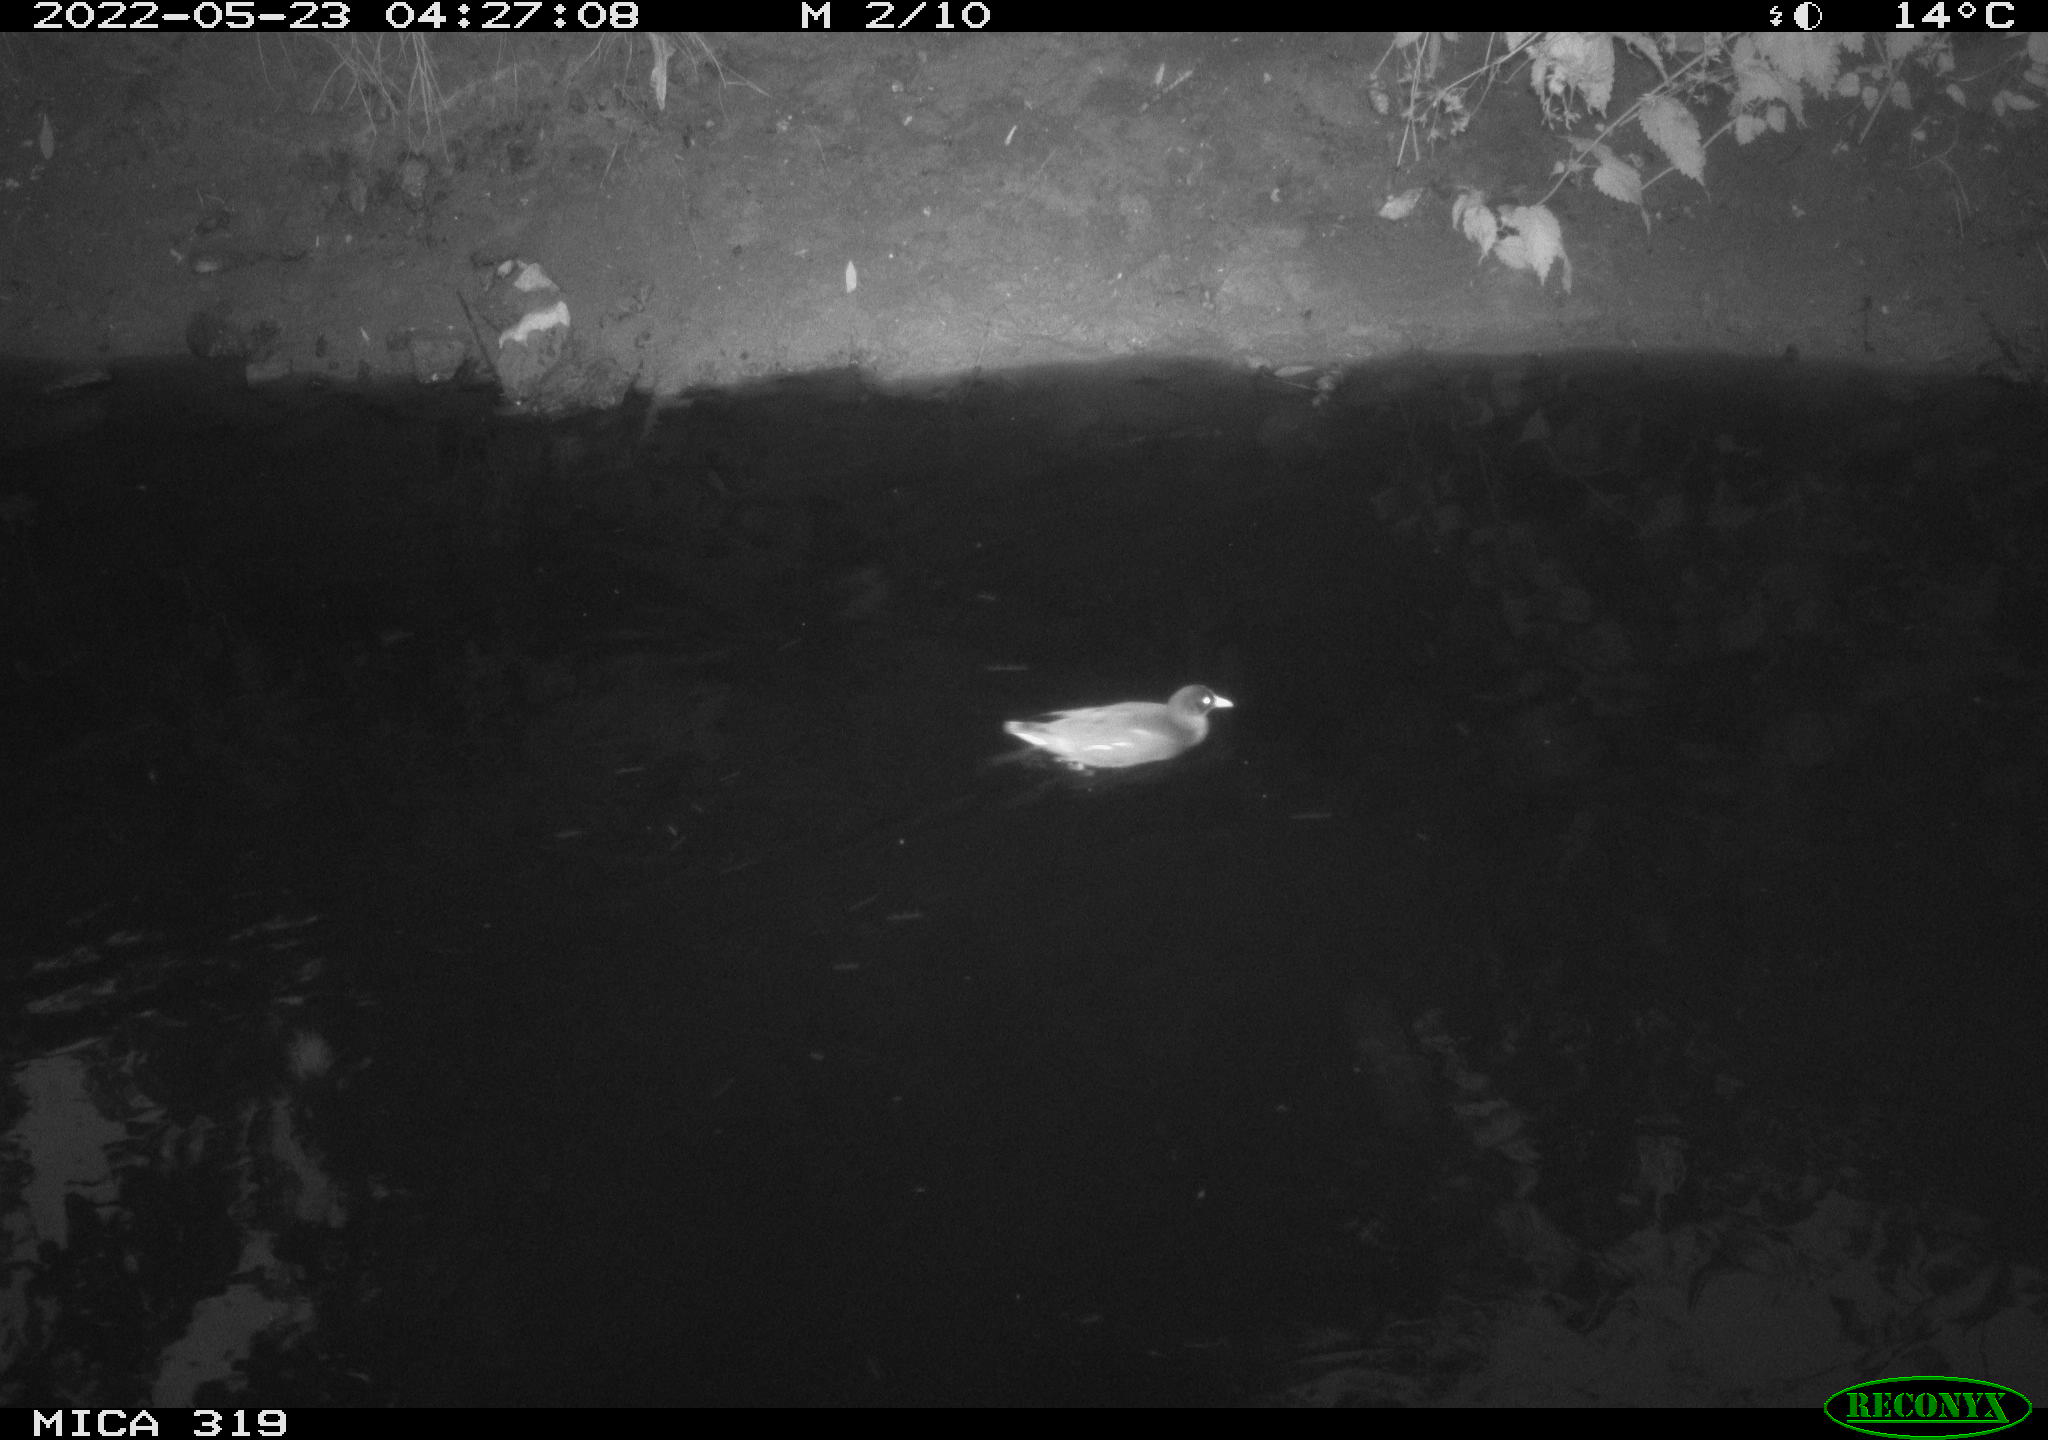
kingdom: Animalia
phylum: Chordata
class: Aves
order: Gruiformes
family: Rallidae
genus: Gallinula
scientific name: Gallinula chloropus
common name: Common moorhen
